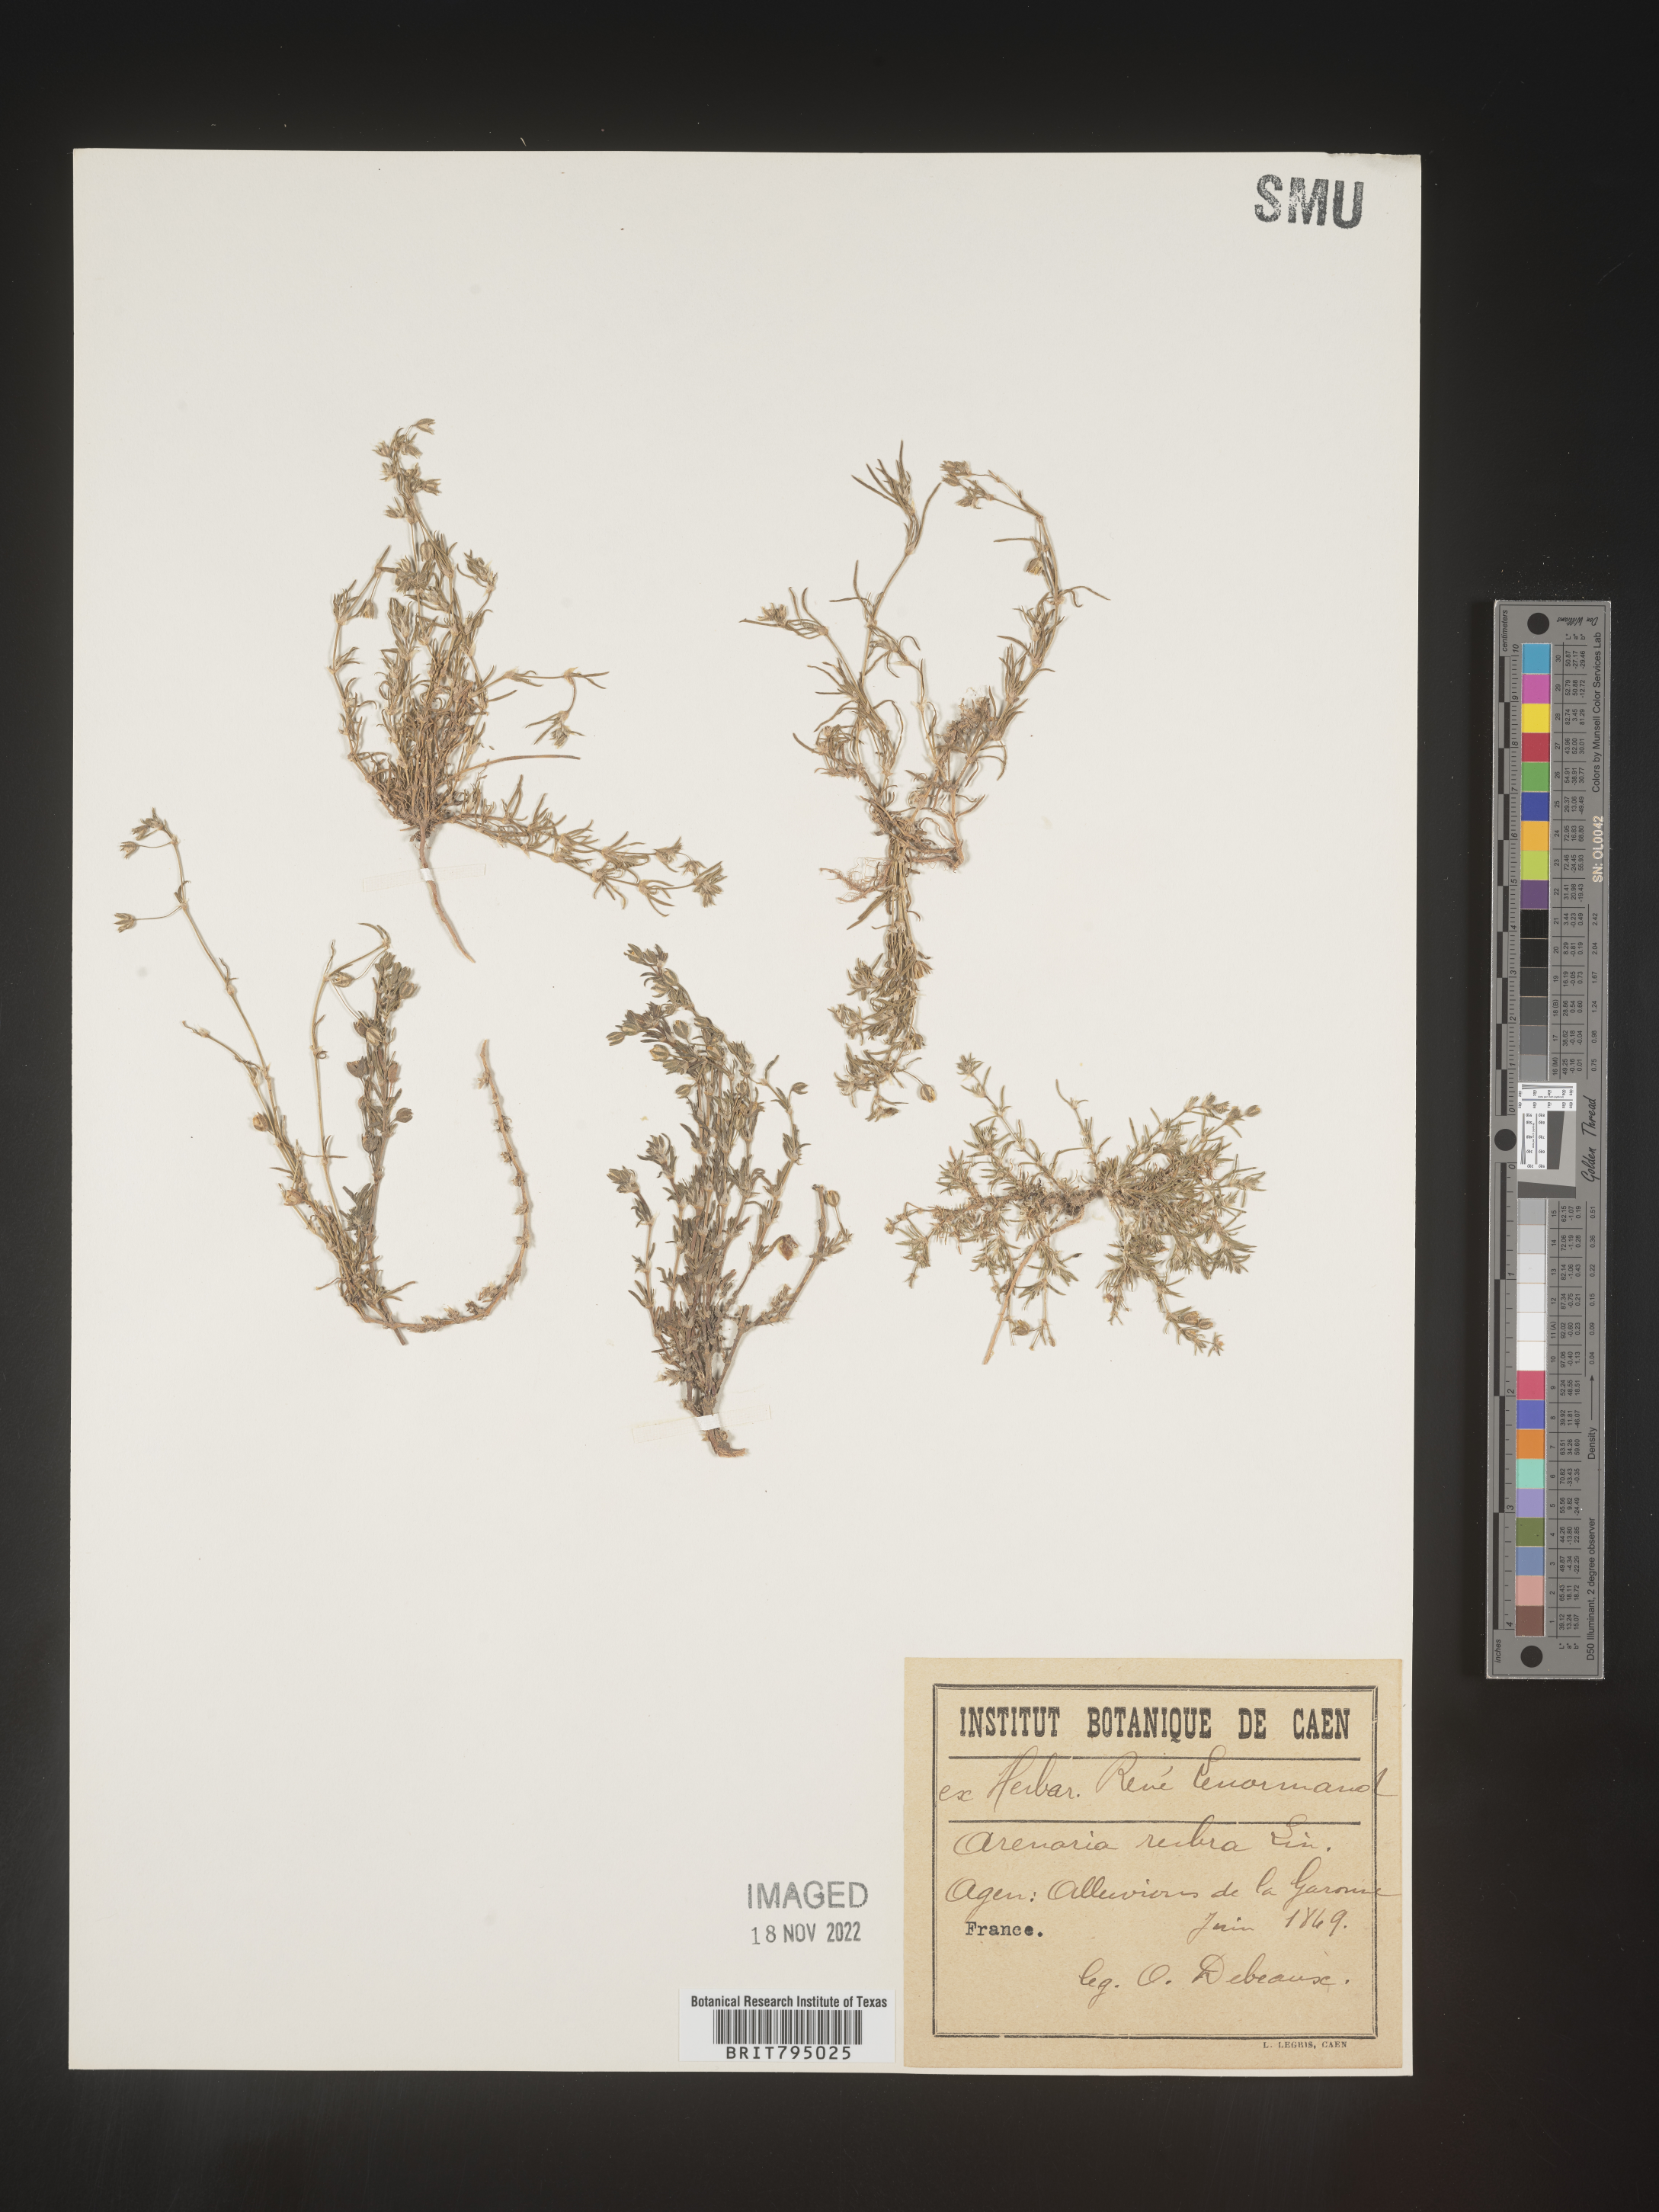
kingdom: Plantae
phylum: Tracheophyta
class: Magnoliopsida
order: Caryophyllales
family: Caryophyllaceae
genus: Spergula
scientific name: Spergula rubra
